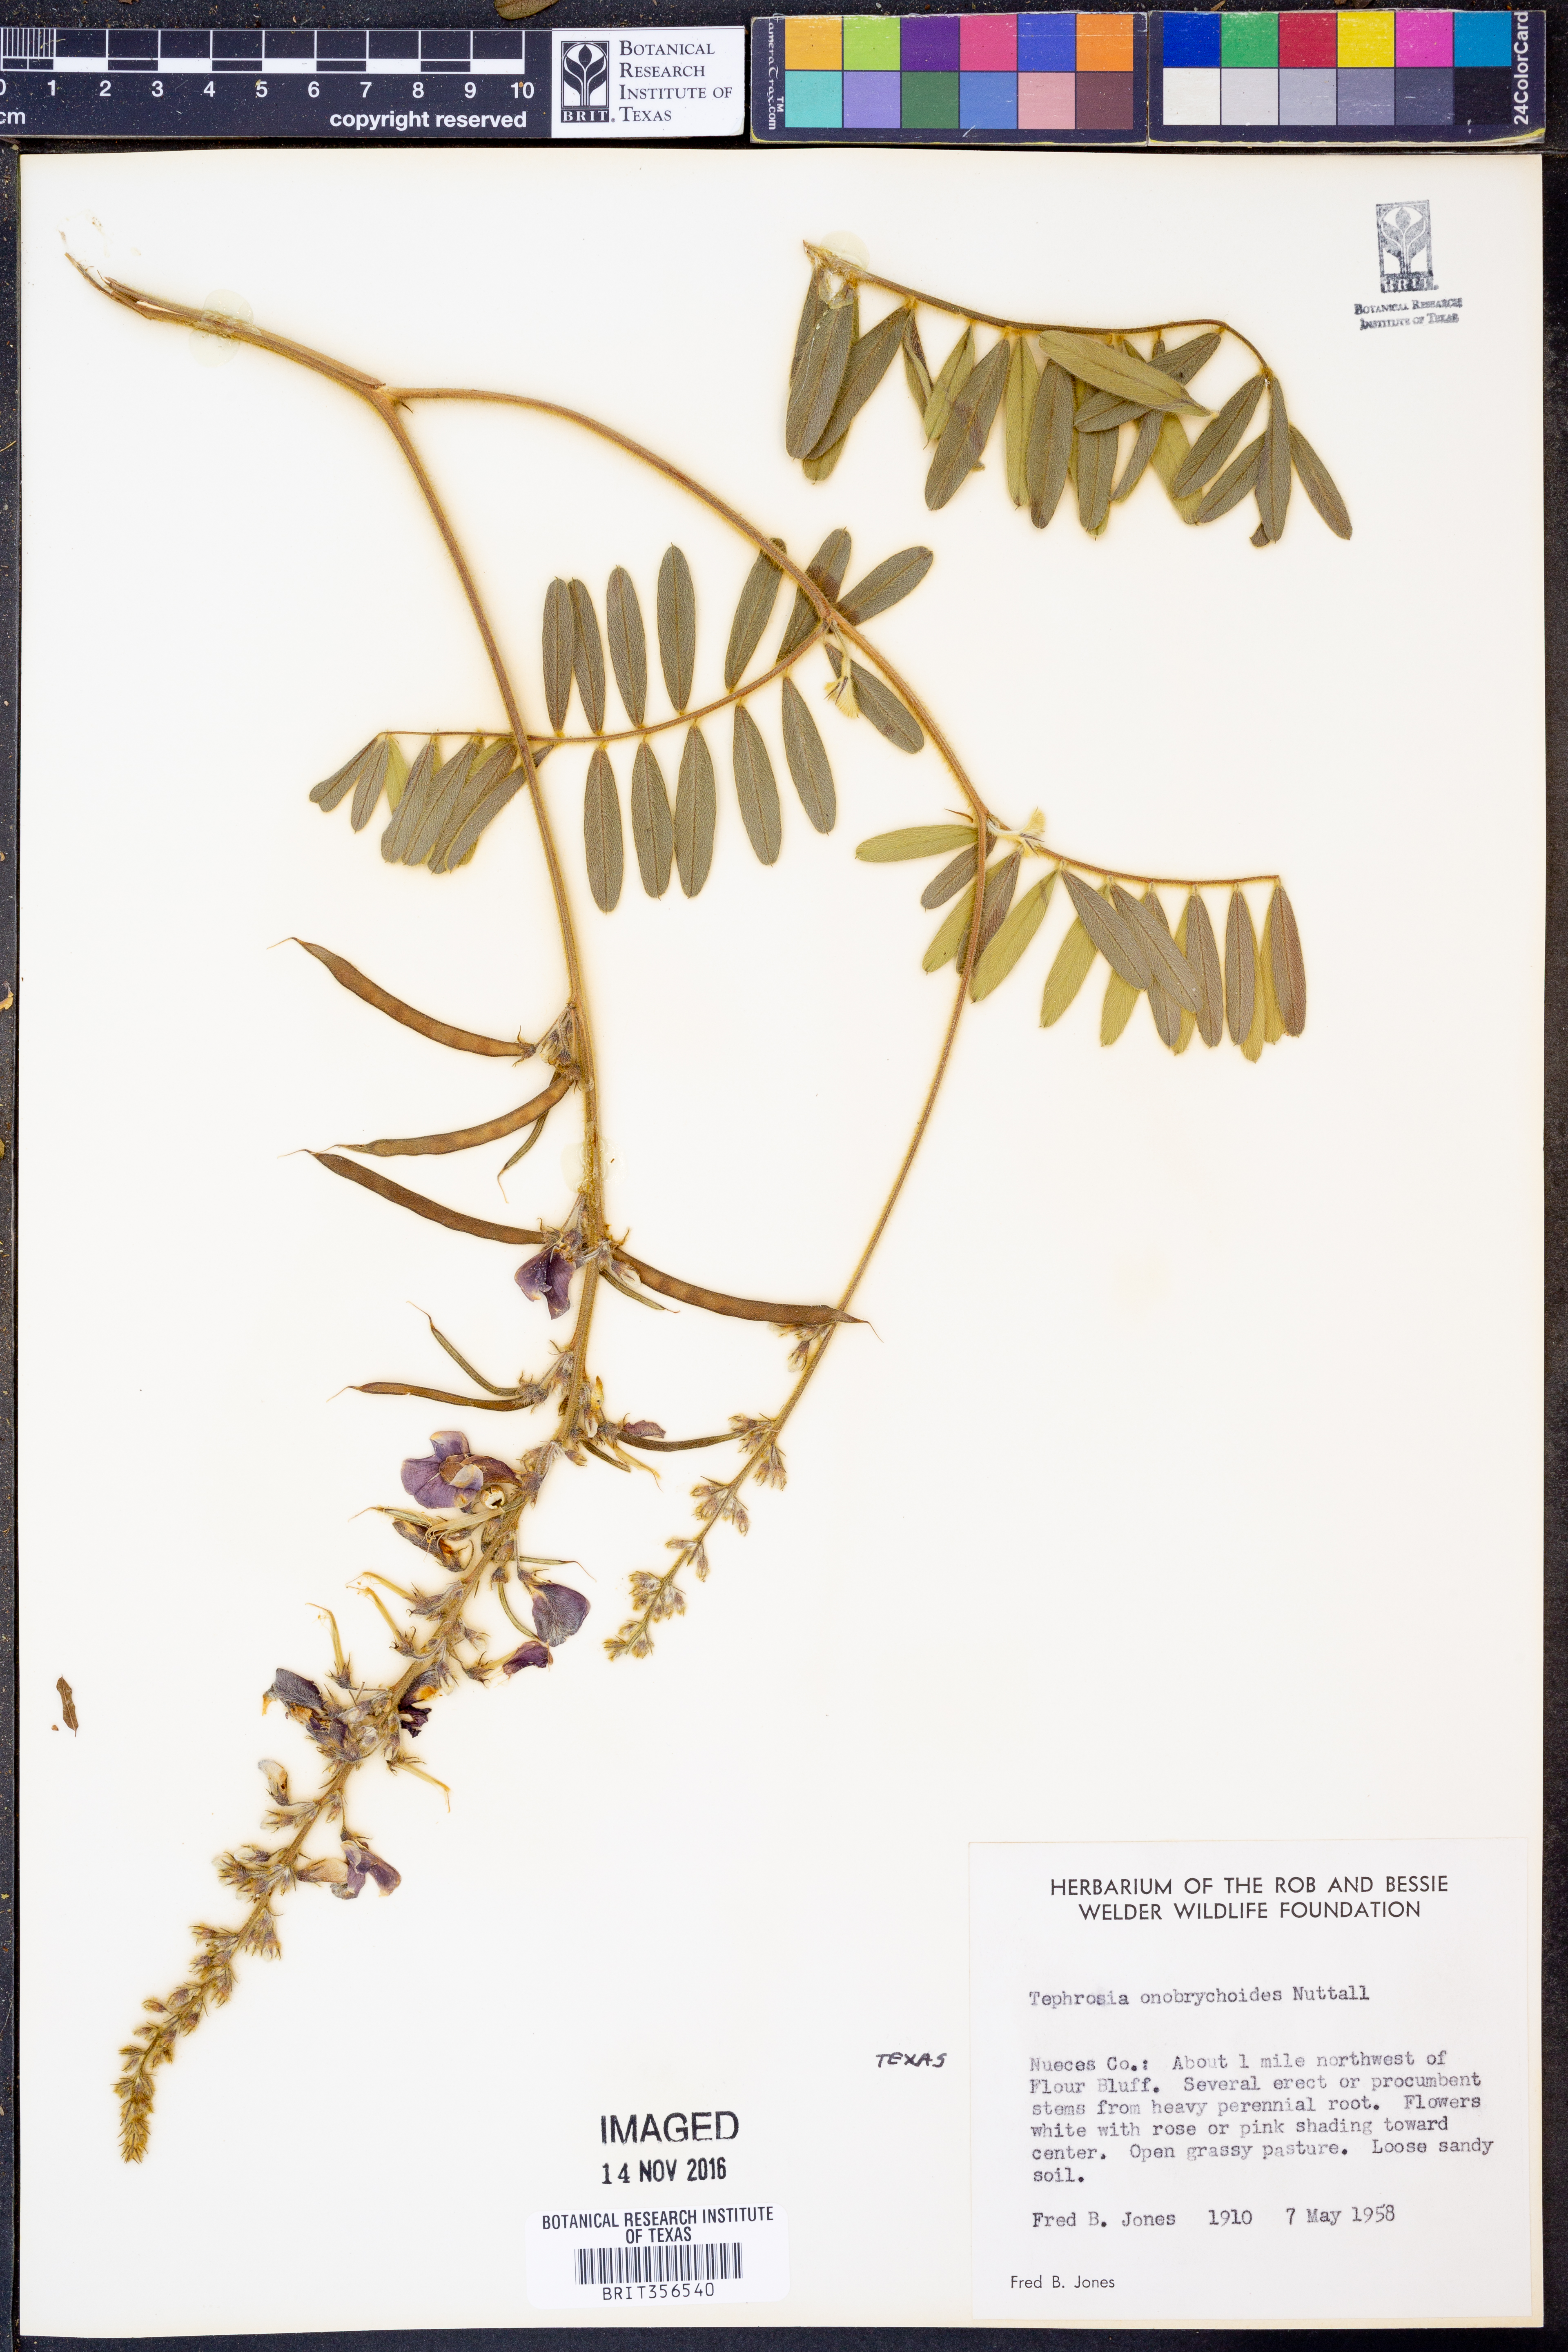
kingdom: Plantae
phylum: Tracheophyta
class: Magnoliopsida
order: Fabales
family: Fabaceae
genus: Tephrosia
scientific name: Tephrosia onobrychoides
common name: Multi-bloom hoary-pea
